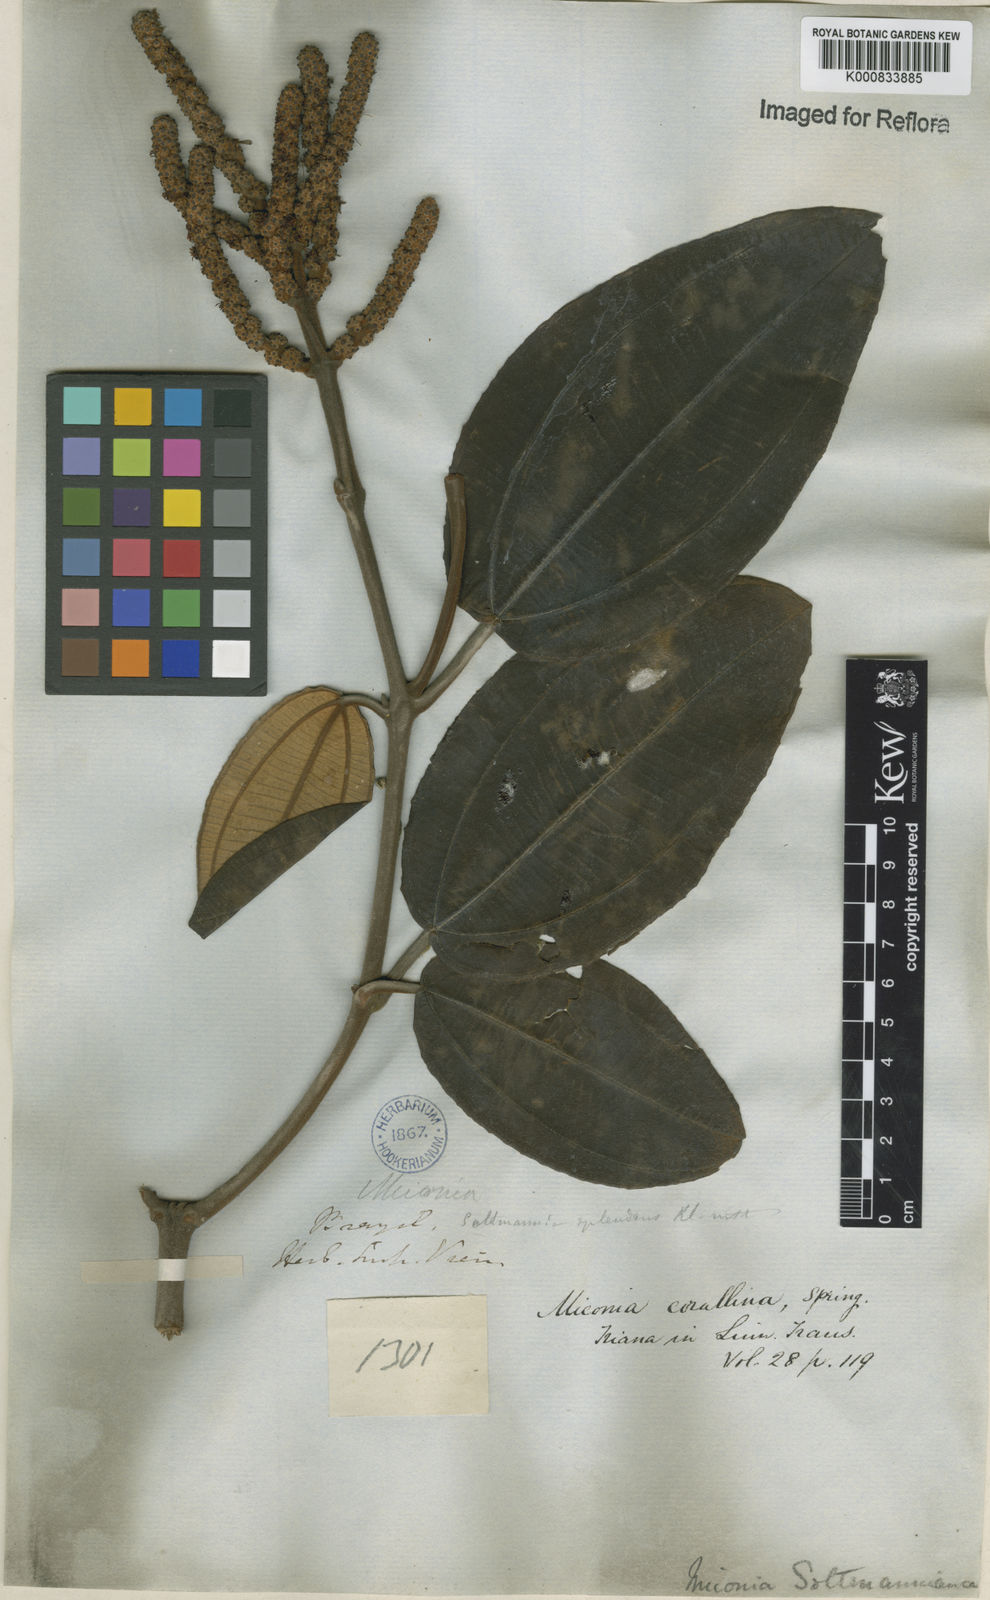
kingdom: Plantae
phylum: Tracheophyta
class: Magnoliopsida
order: Myrtales
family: Melastomataceae
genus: Miconia
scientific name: Miconia
